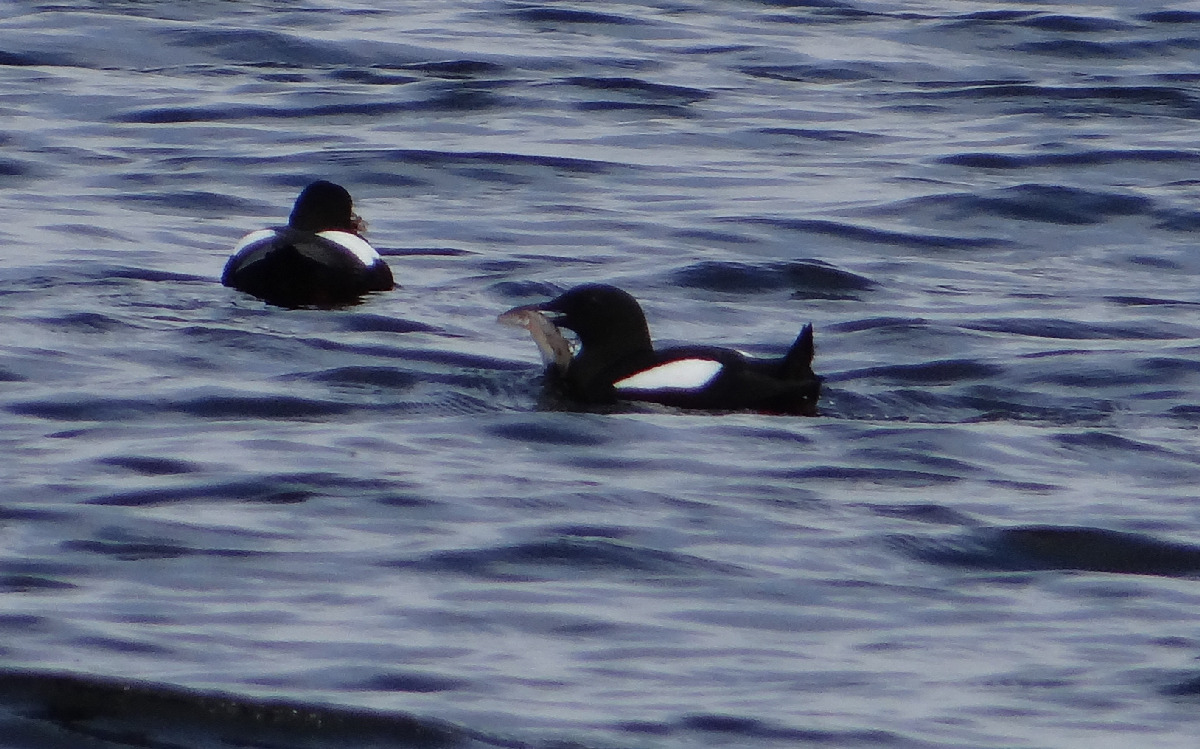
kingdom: Animalia
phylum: Chordata
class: Aves
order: Charadriiformes
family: Alcidae
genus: Cepphus
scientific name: Cepphus grylle
